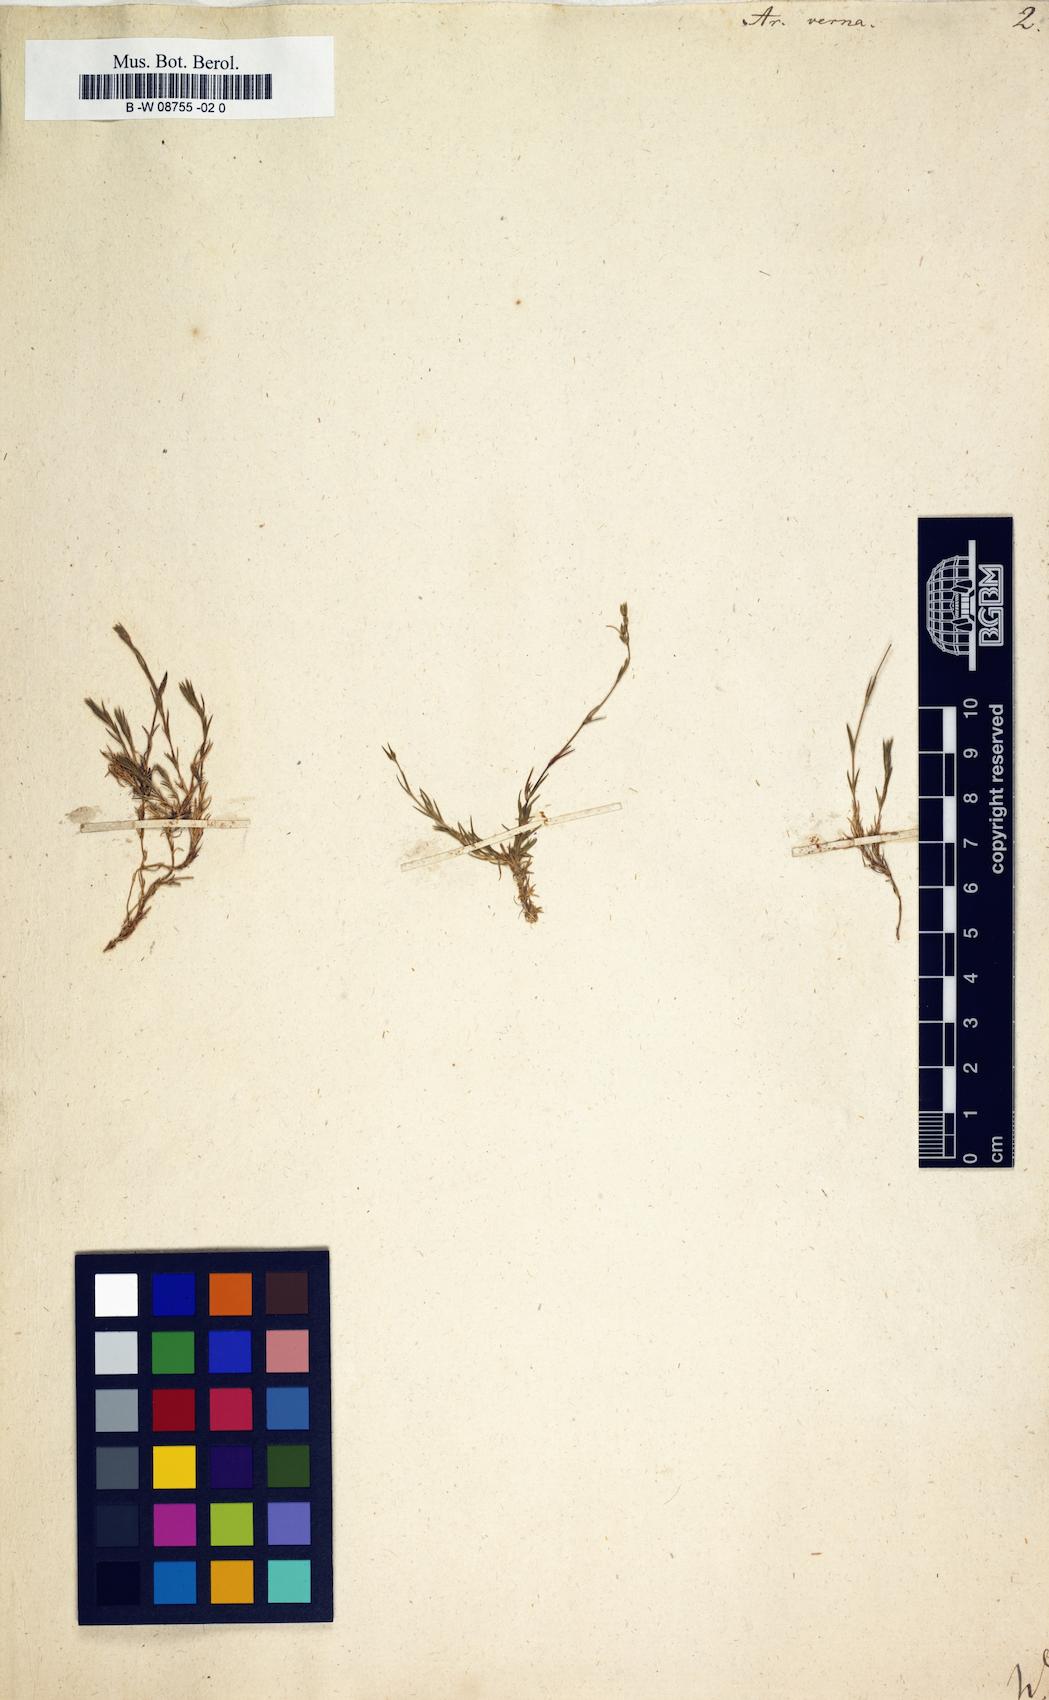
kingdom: Plantae
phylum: Tracheophyta
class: Magnoliopsida
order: Caryophyllales
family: Caryophyllaceae
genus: Sabulina
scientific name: Sabulina verna
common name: Spring sandwort
